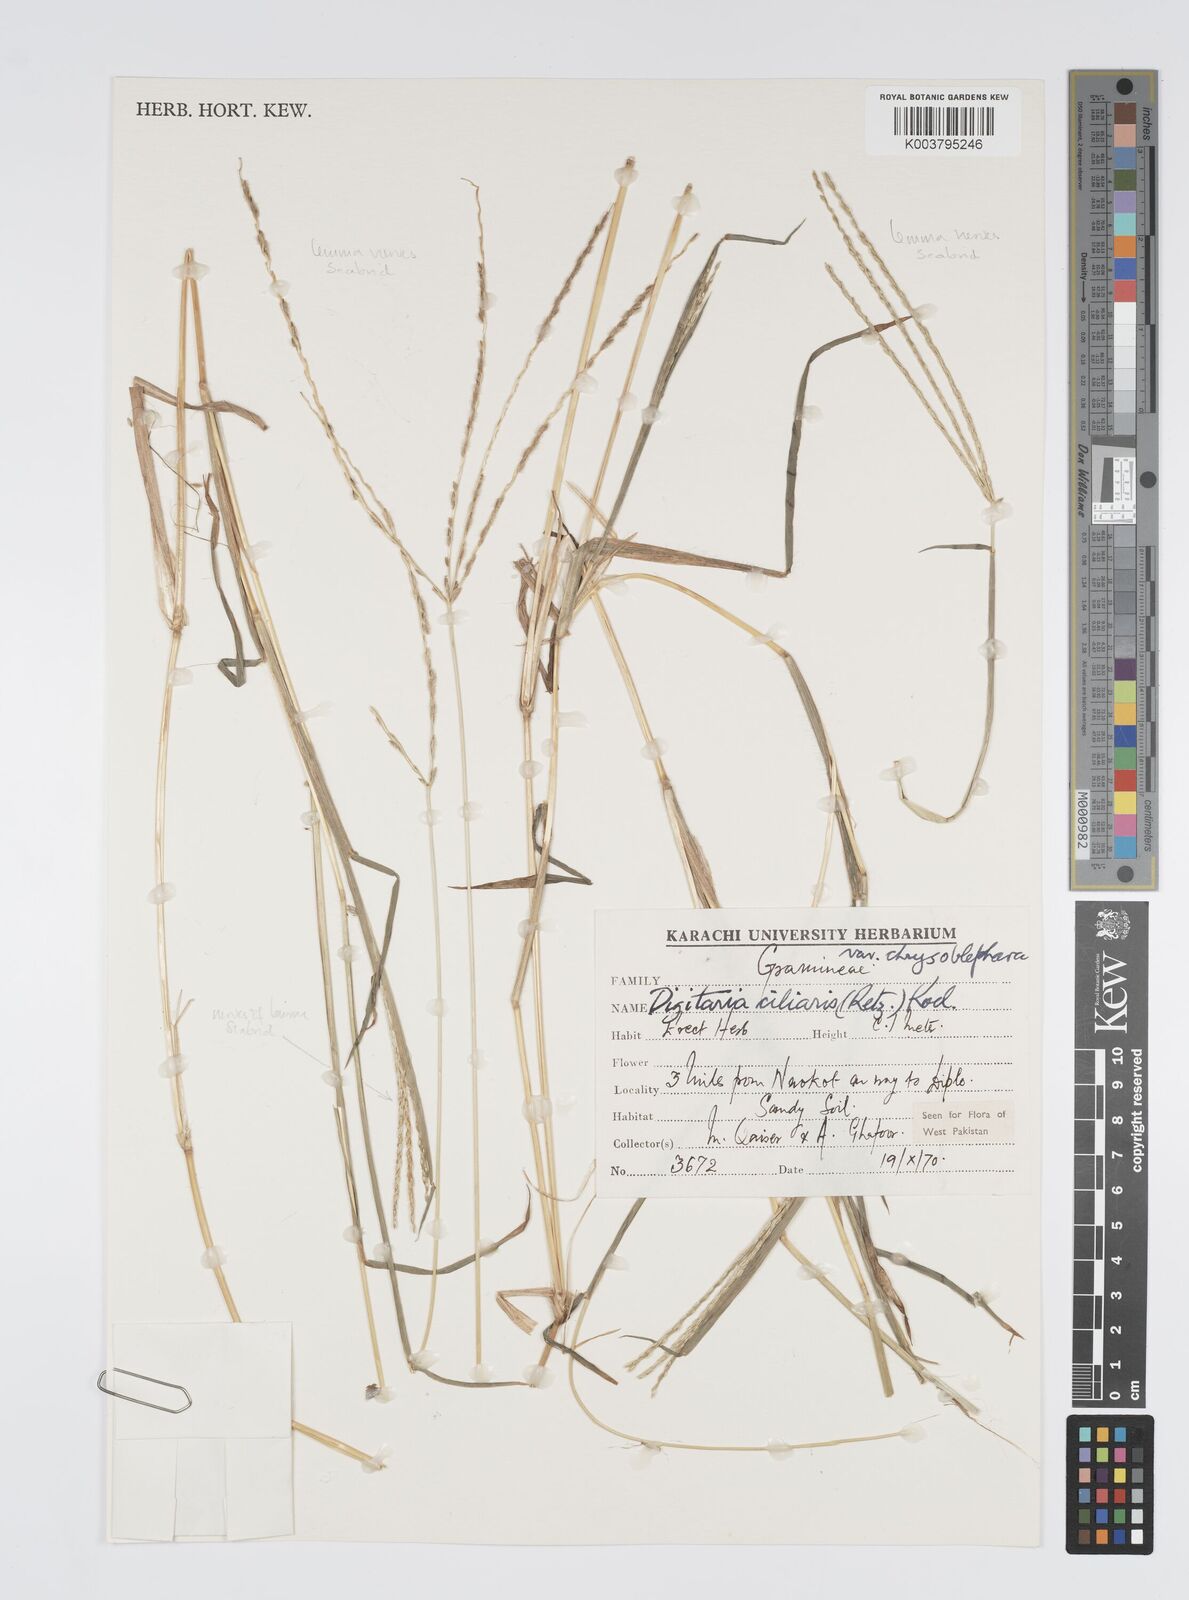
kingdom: Plantae
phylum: Tracheophyta
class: Liliopsida
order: Poales
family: Poaceae
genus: Digitaria
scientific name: Digitaria ciliaris
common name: Tropical finger-grass
